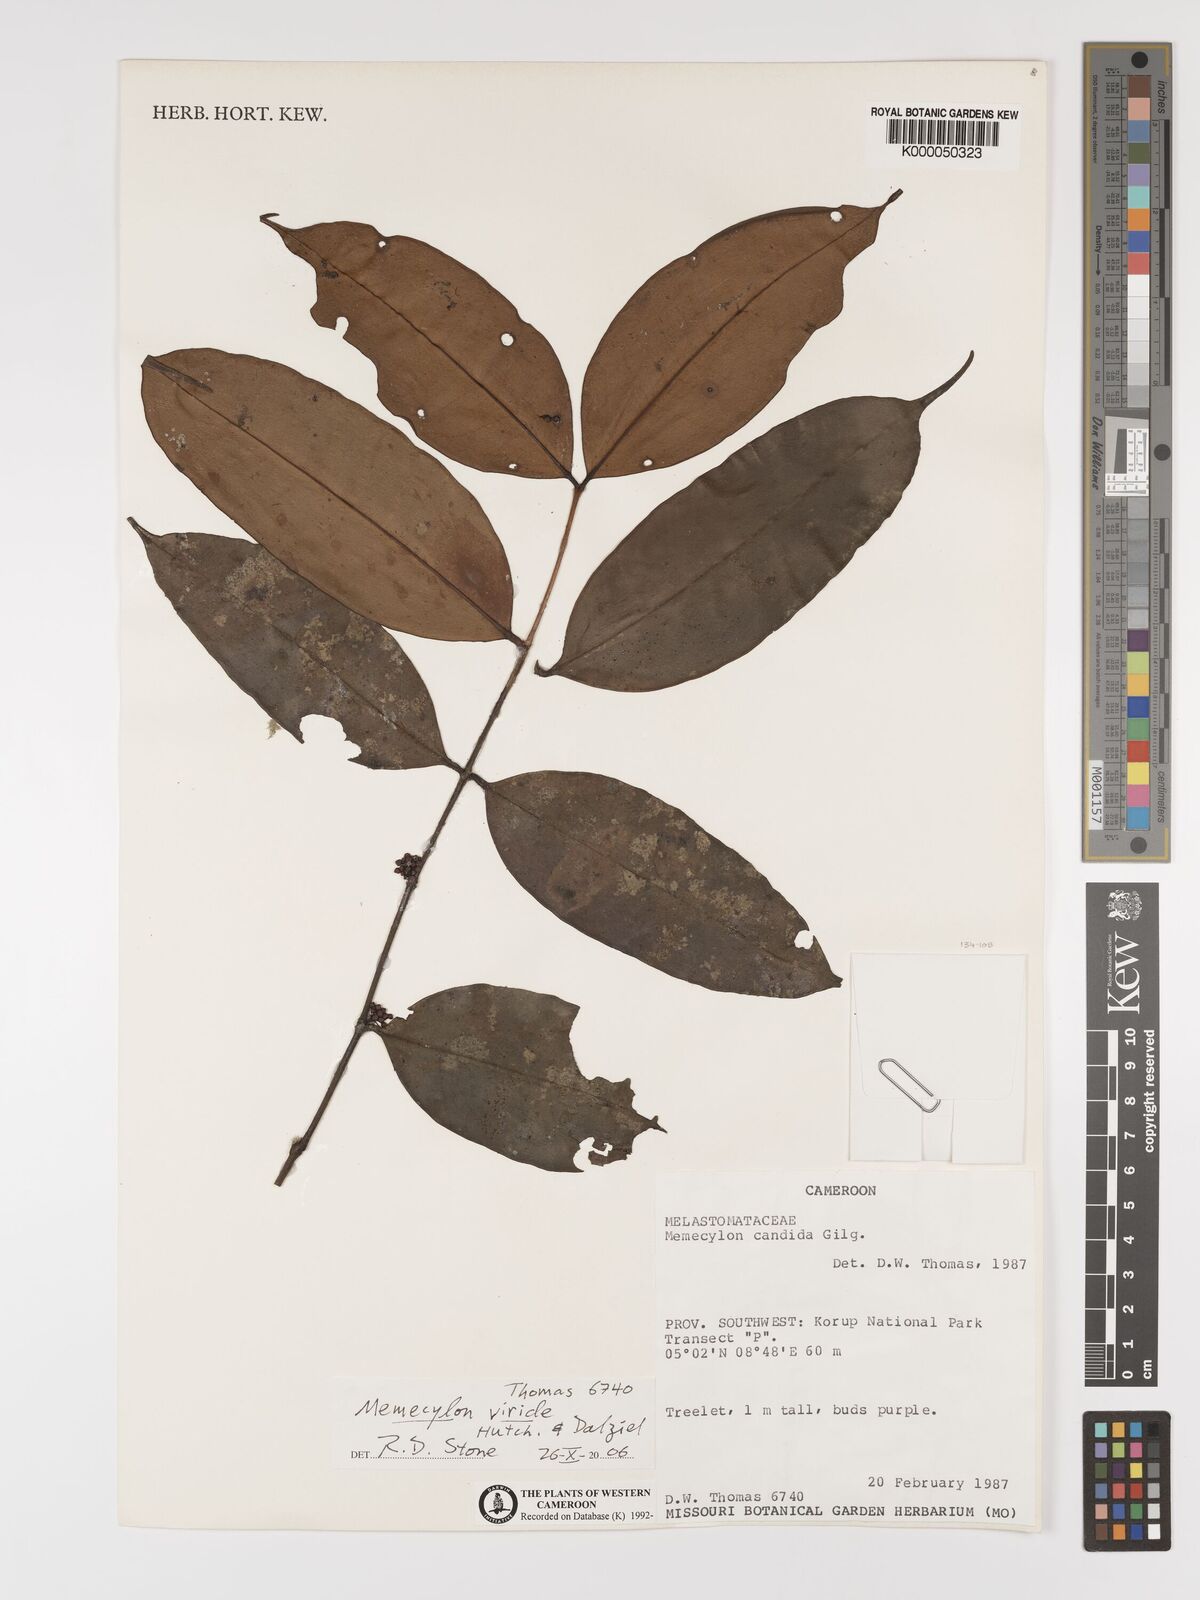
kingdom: Plantae
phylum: Tracheophyta
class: Magnoliopsida
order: Myrtales
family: Melastomataceae
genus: Memecylon
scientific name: Memecylon candidum
